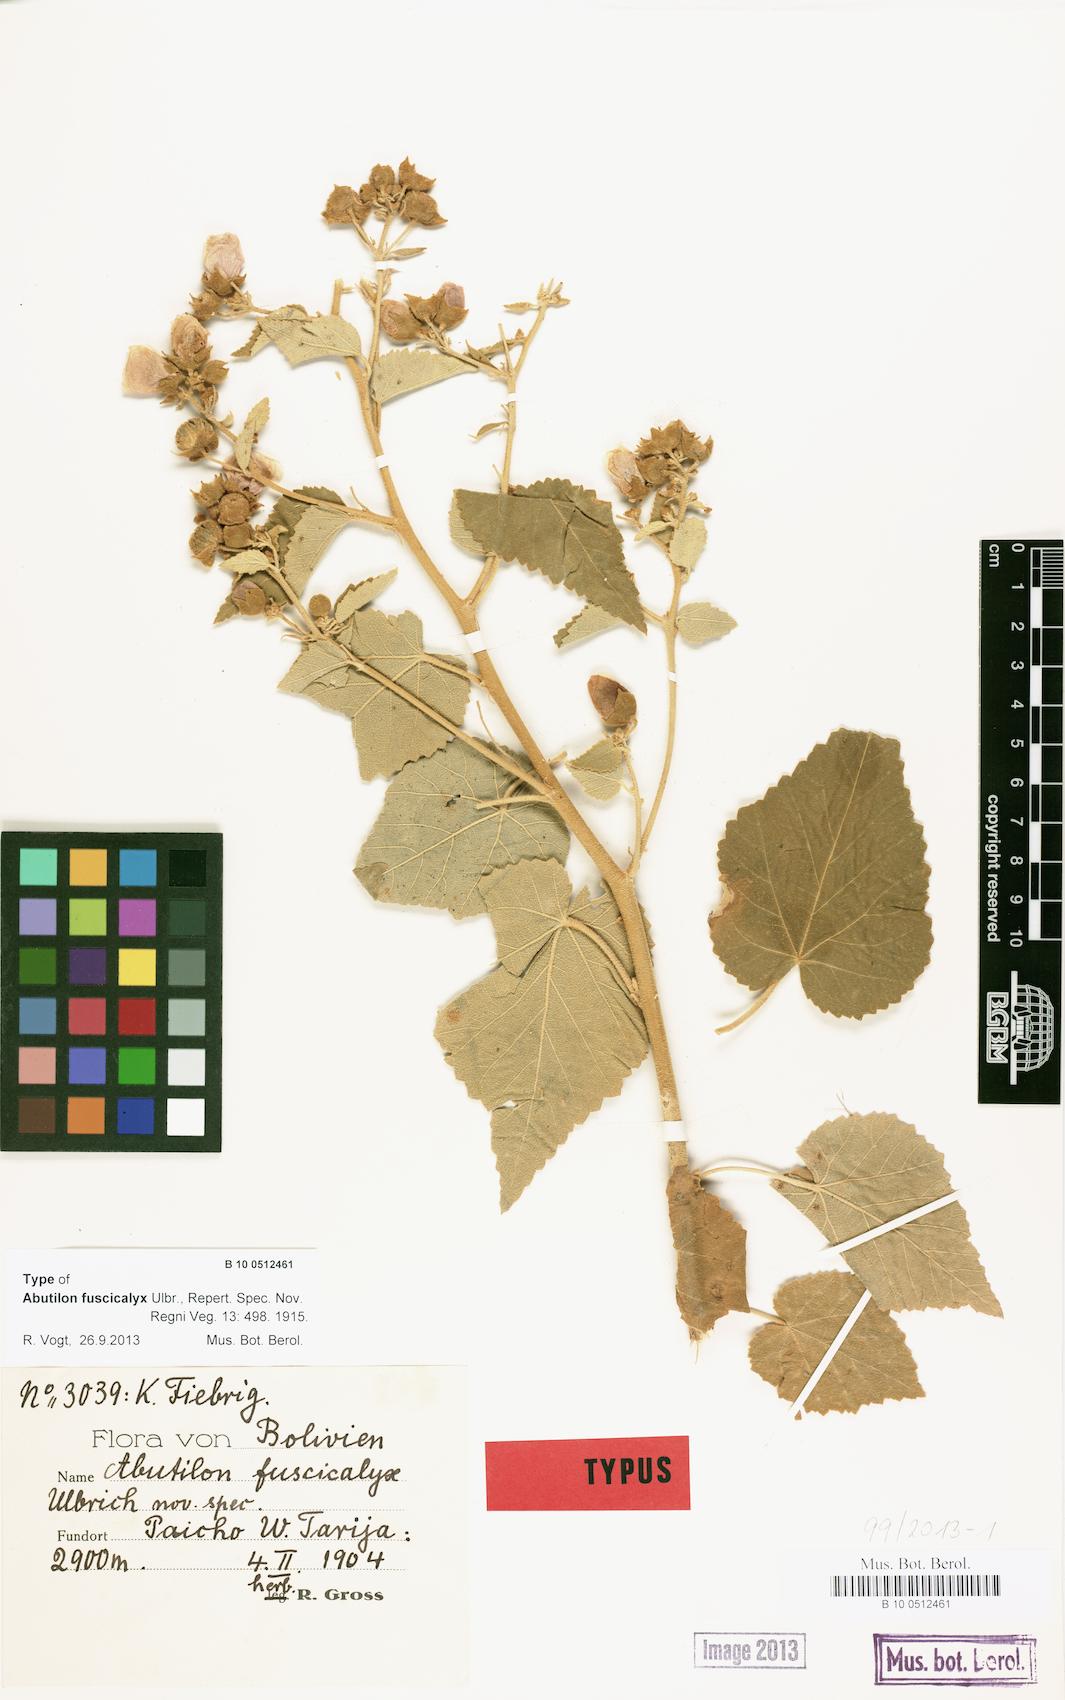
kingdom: Plantae
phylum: Tracheophyta
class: Magnoliopsida
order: Malvales
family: Malvaceae
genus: Abutilon
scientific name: Abutilon fuscicalyx
